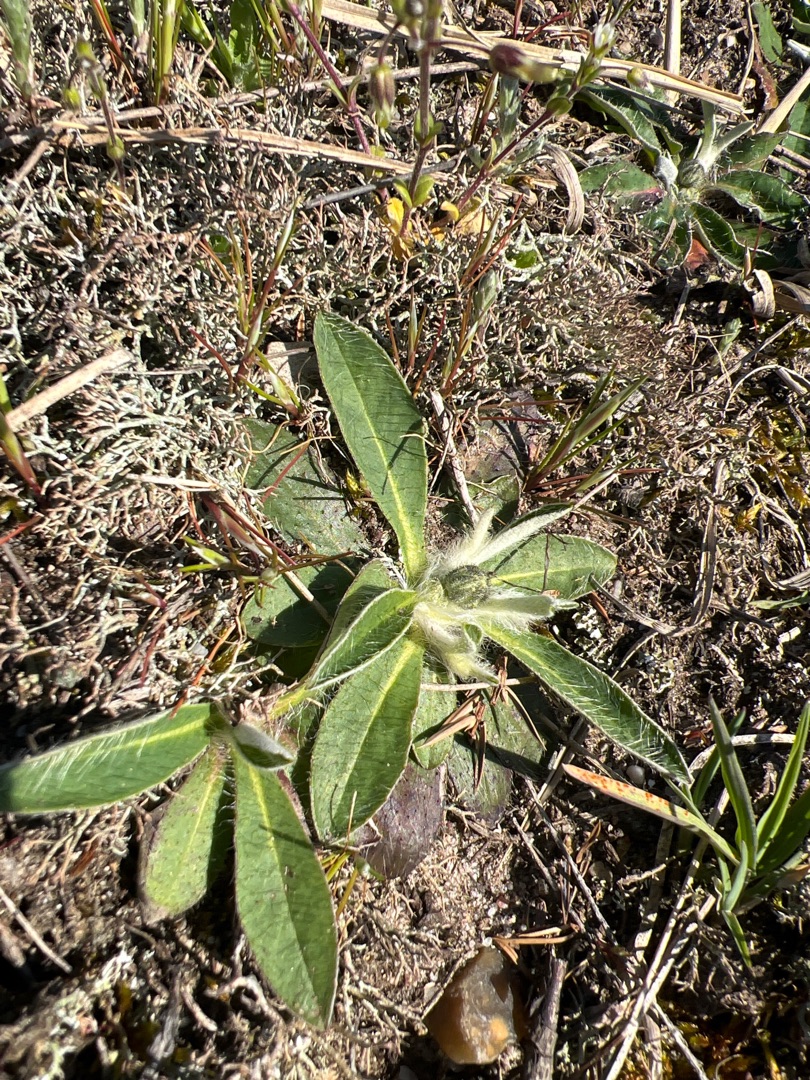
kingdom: Plantae
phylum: Tracheophyta
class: Magnoliopsida
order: Asterales
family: Asteraceae
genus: Pilosella
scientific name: Pilosella officinarum
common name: Håret høgeurt
